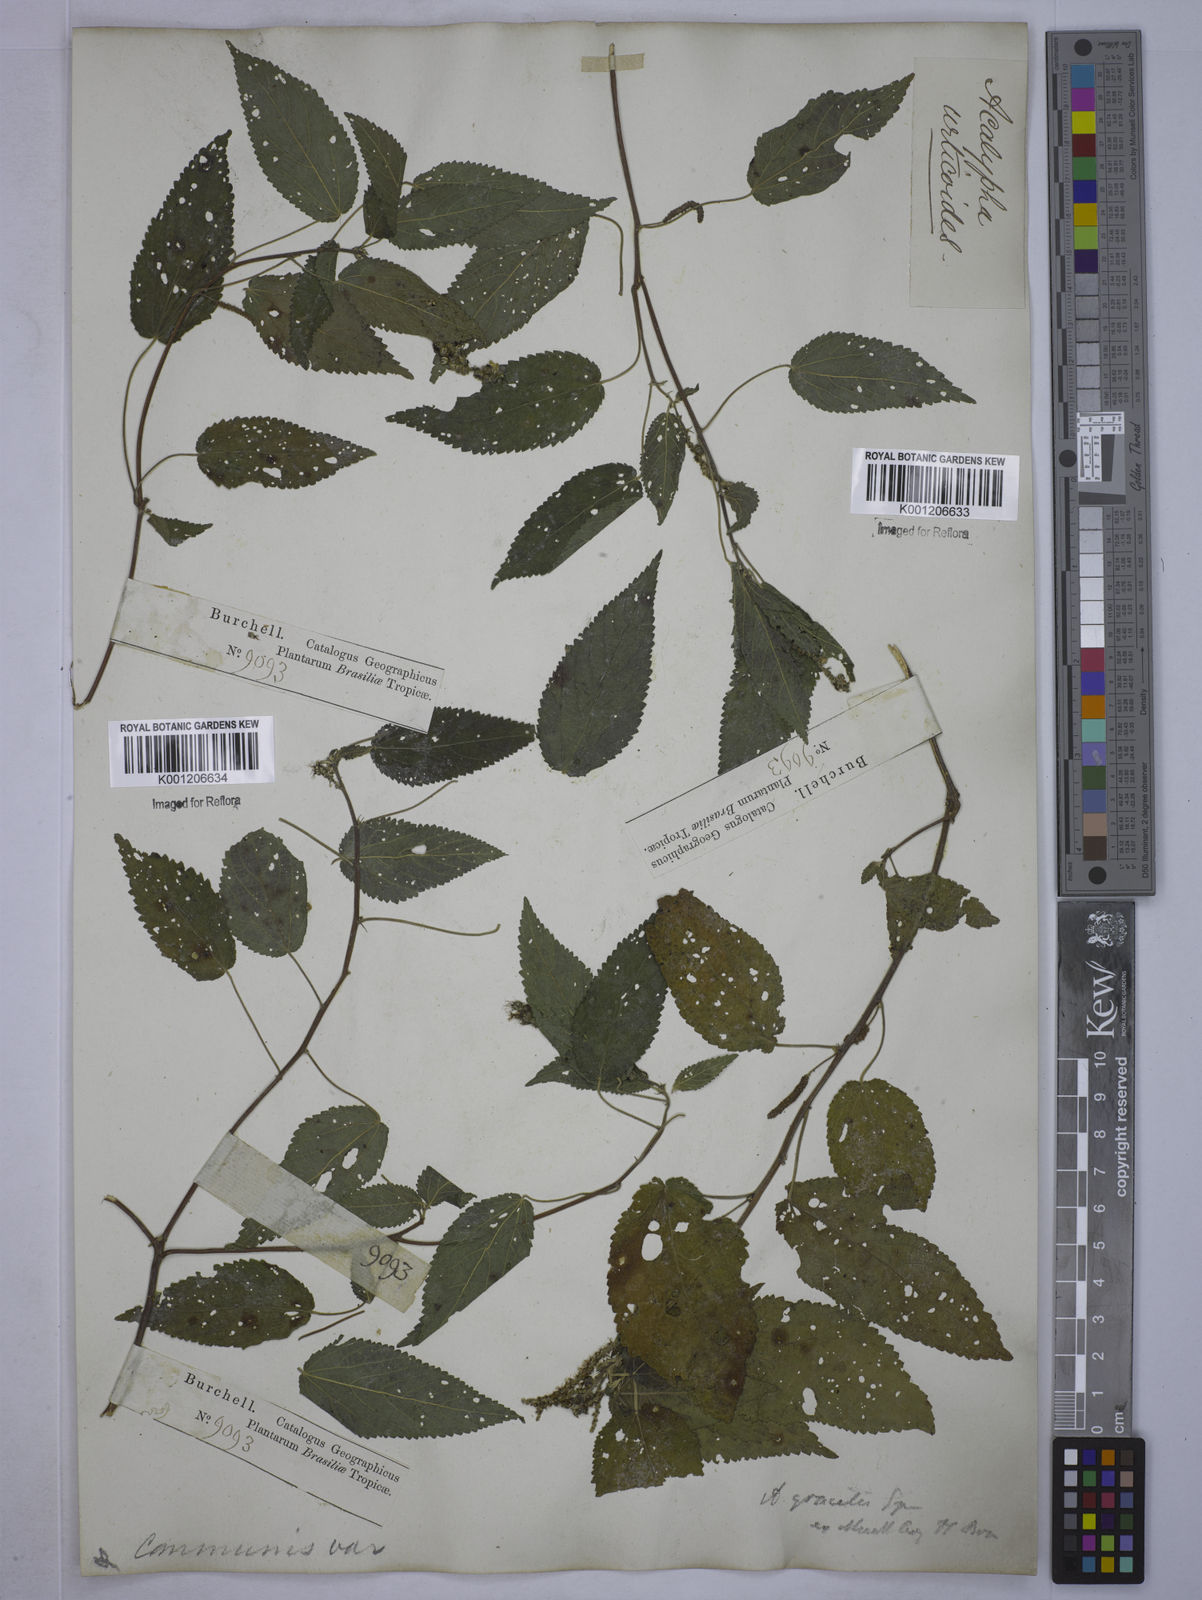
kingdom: Plantae
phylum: Tracheophyta
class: Magnoliopsida
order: Malpighiales
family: Euphorbiaceae
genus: Acalypha
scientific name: Acalypha gracilis
